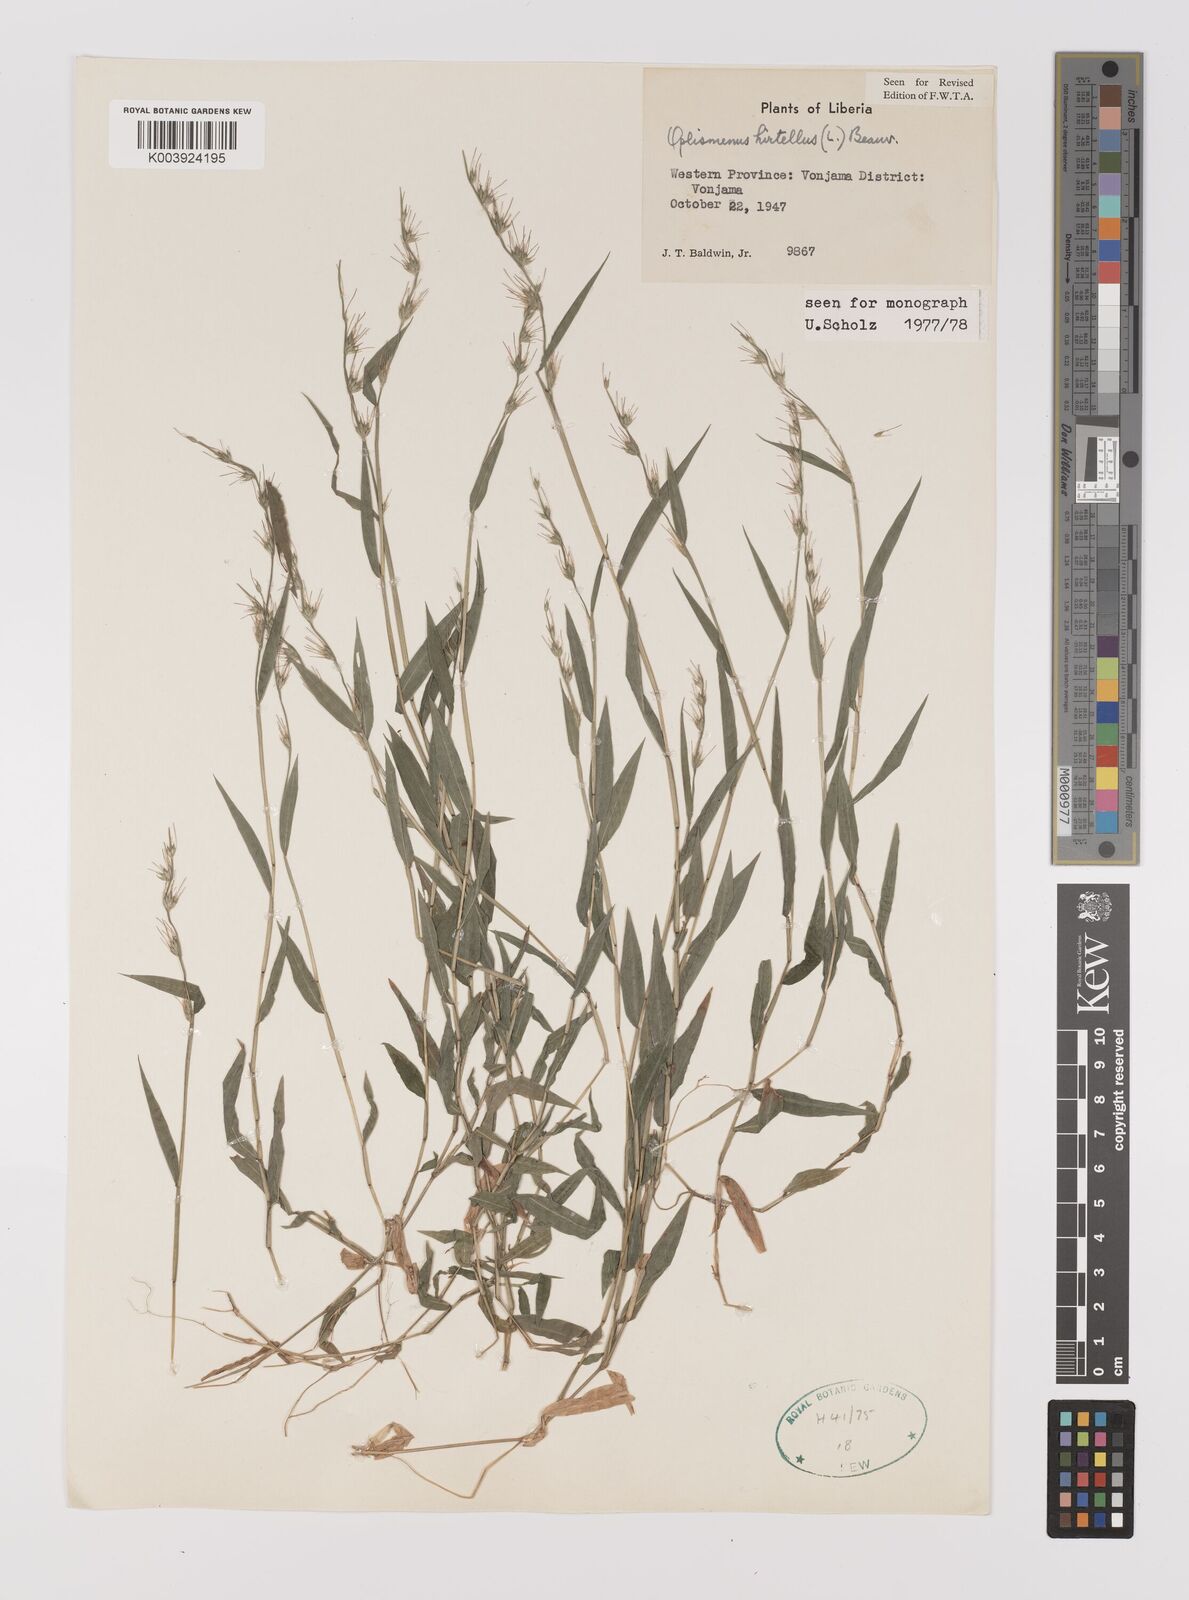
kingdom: Plantae
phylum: Tracheophyta
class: Liliopsida
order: Poales
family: Poaceae
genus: Oplismenus
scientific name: Oplismenus hirtellus
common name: Basketgrass
